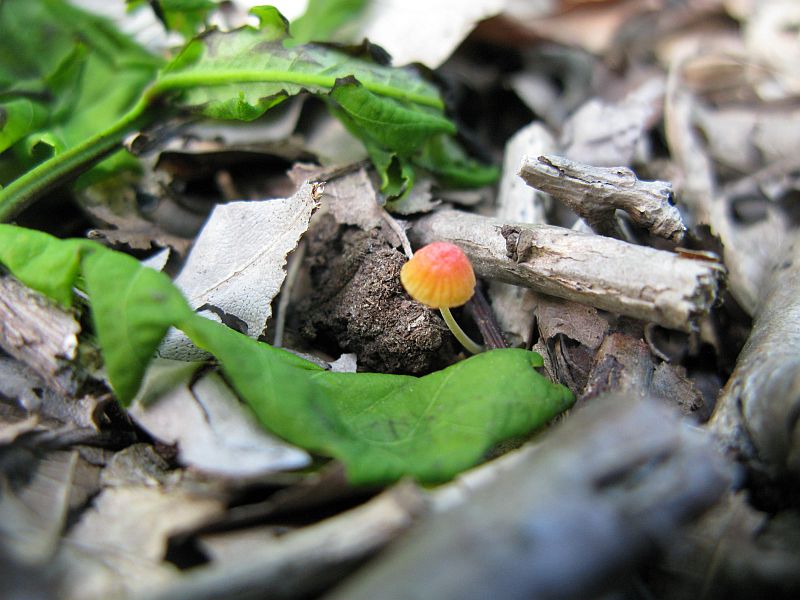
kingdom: Fungi
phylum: Basidiomycota
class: Agaricomycetes
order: Agaricales
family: Mycenaceae
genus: Mycena
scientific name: Mycena acicula
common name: orange huesvamp
